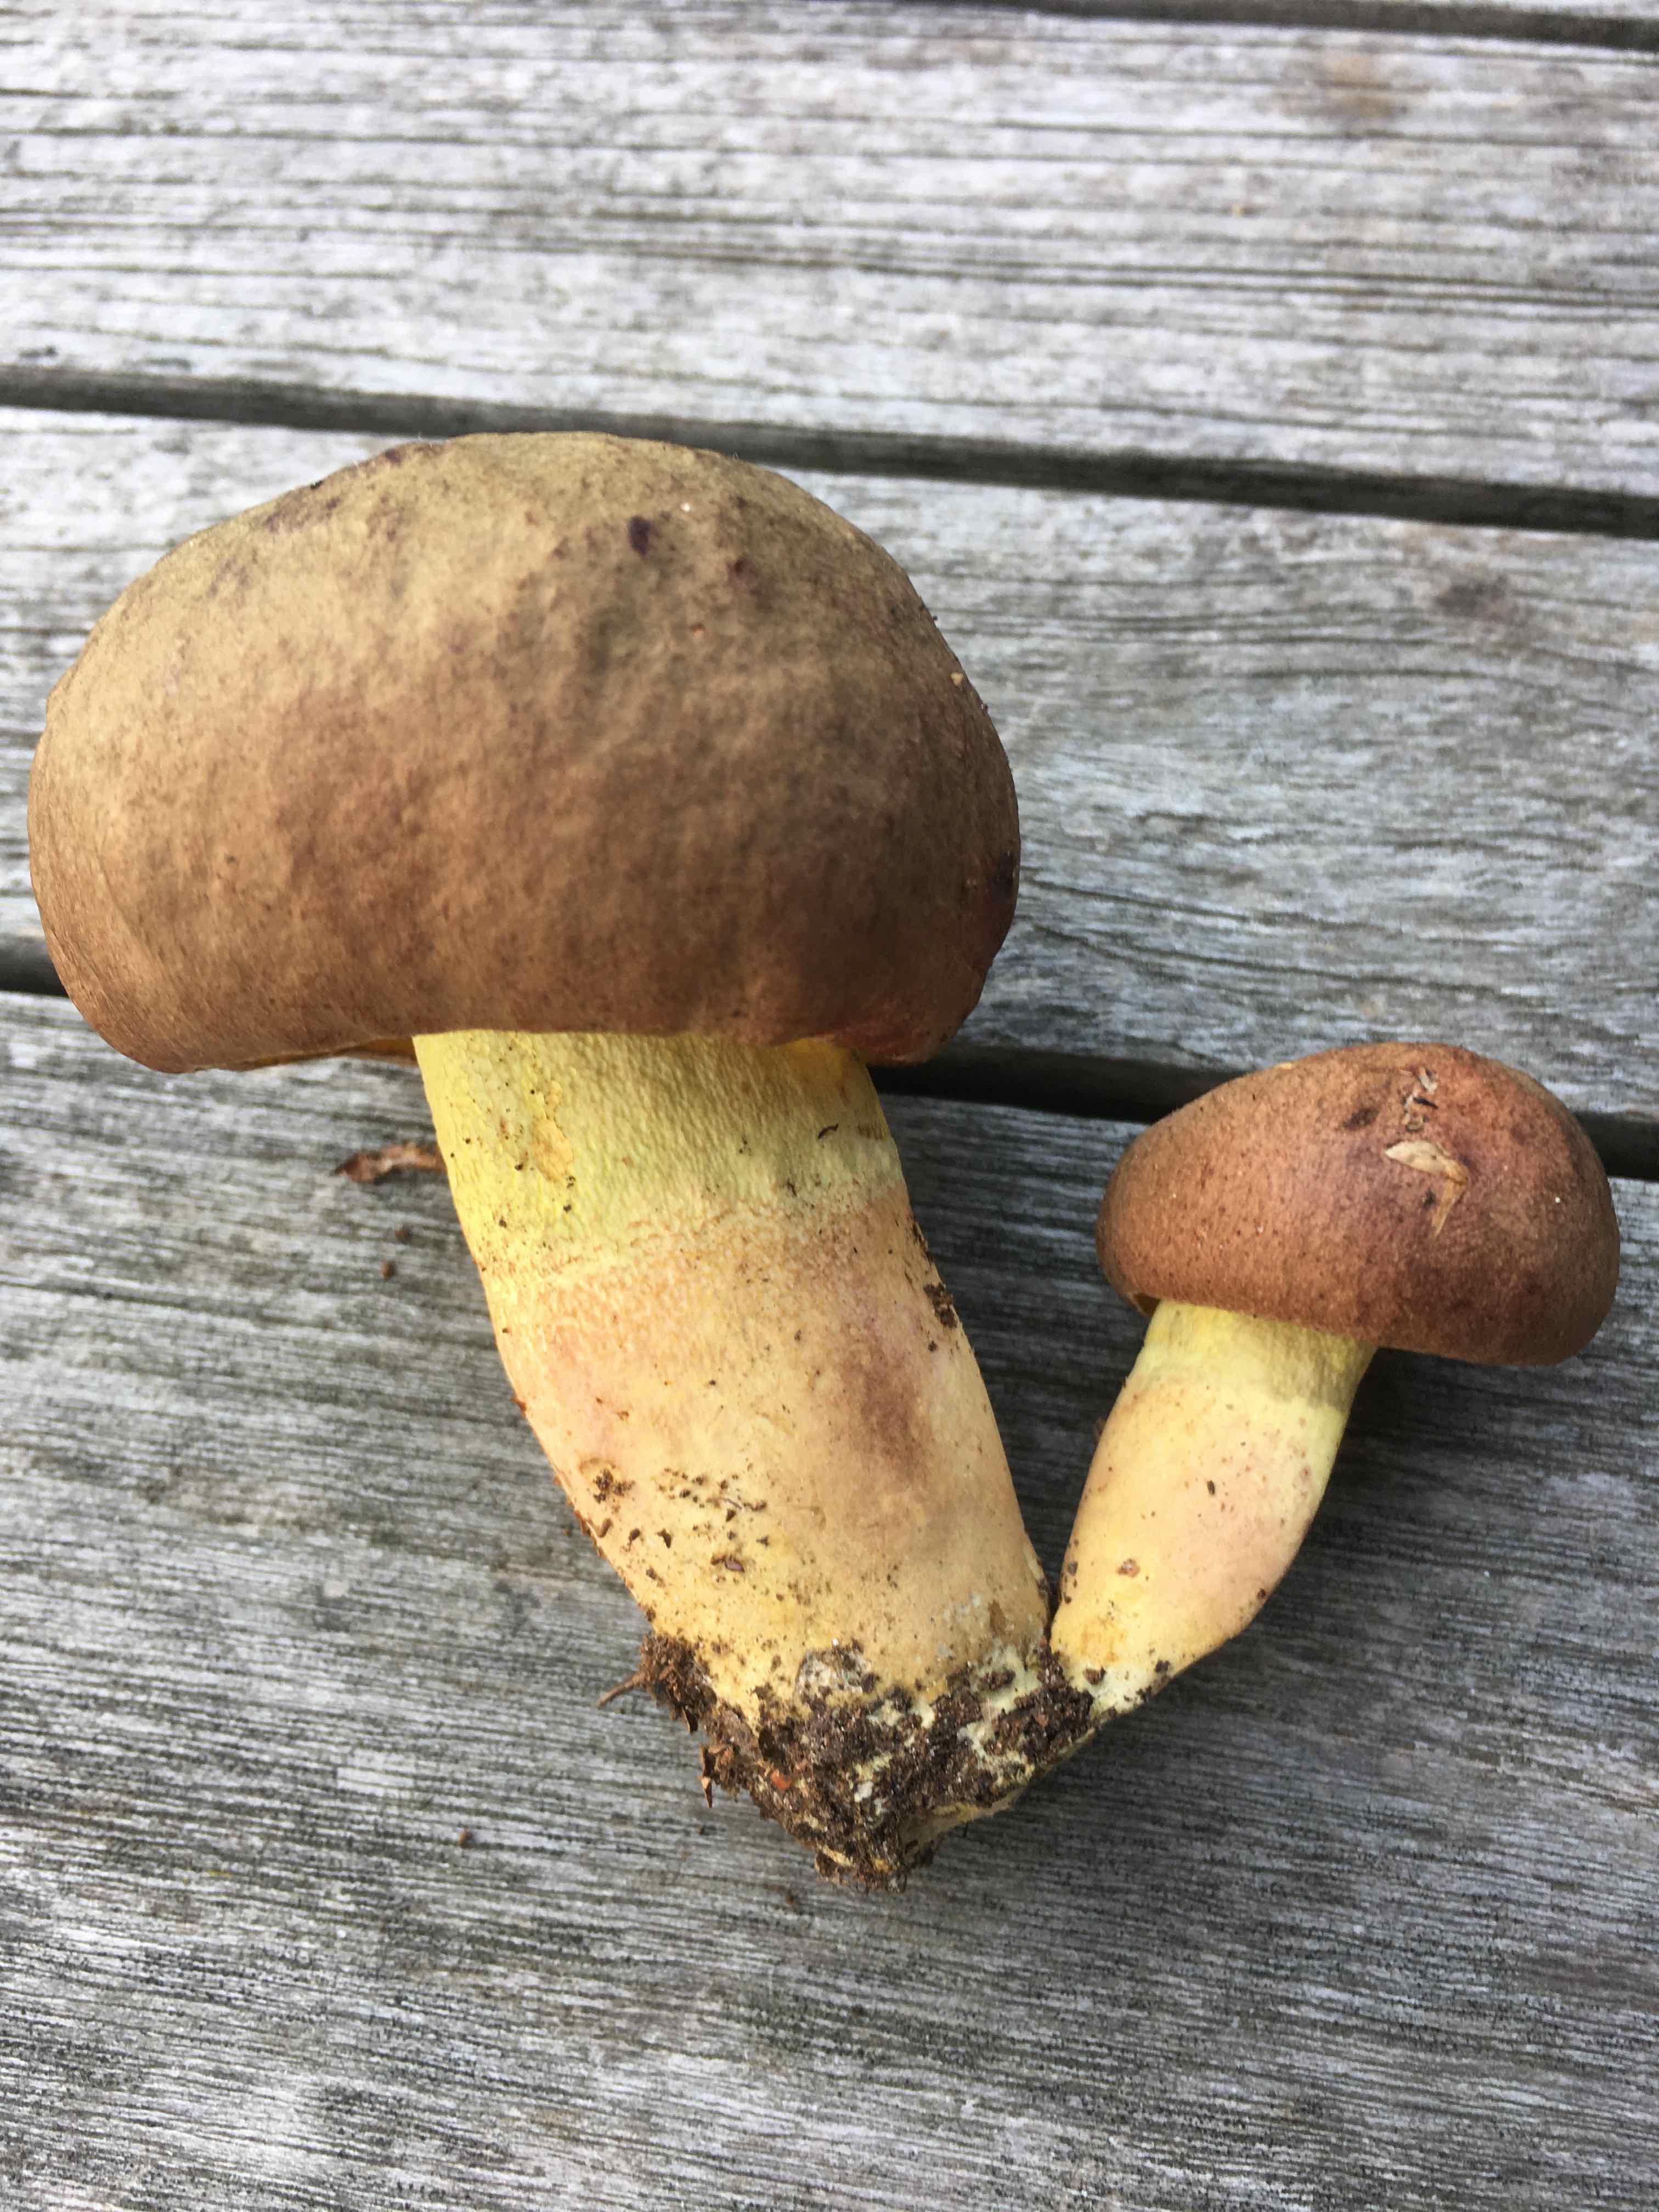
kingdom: Fungi
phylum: Basidiomycota
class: Agaricomycetes
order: Boletales
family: Boletaceae
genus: Butyriboletus
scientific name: Butyriboletus appendiculatus
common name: tenstokket rørhat
